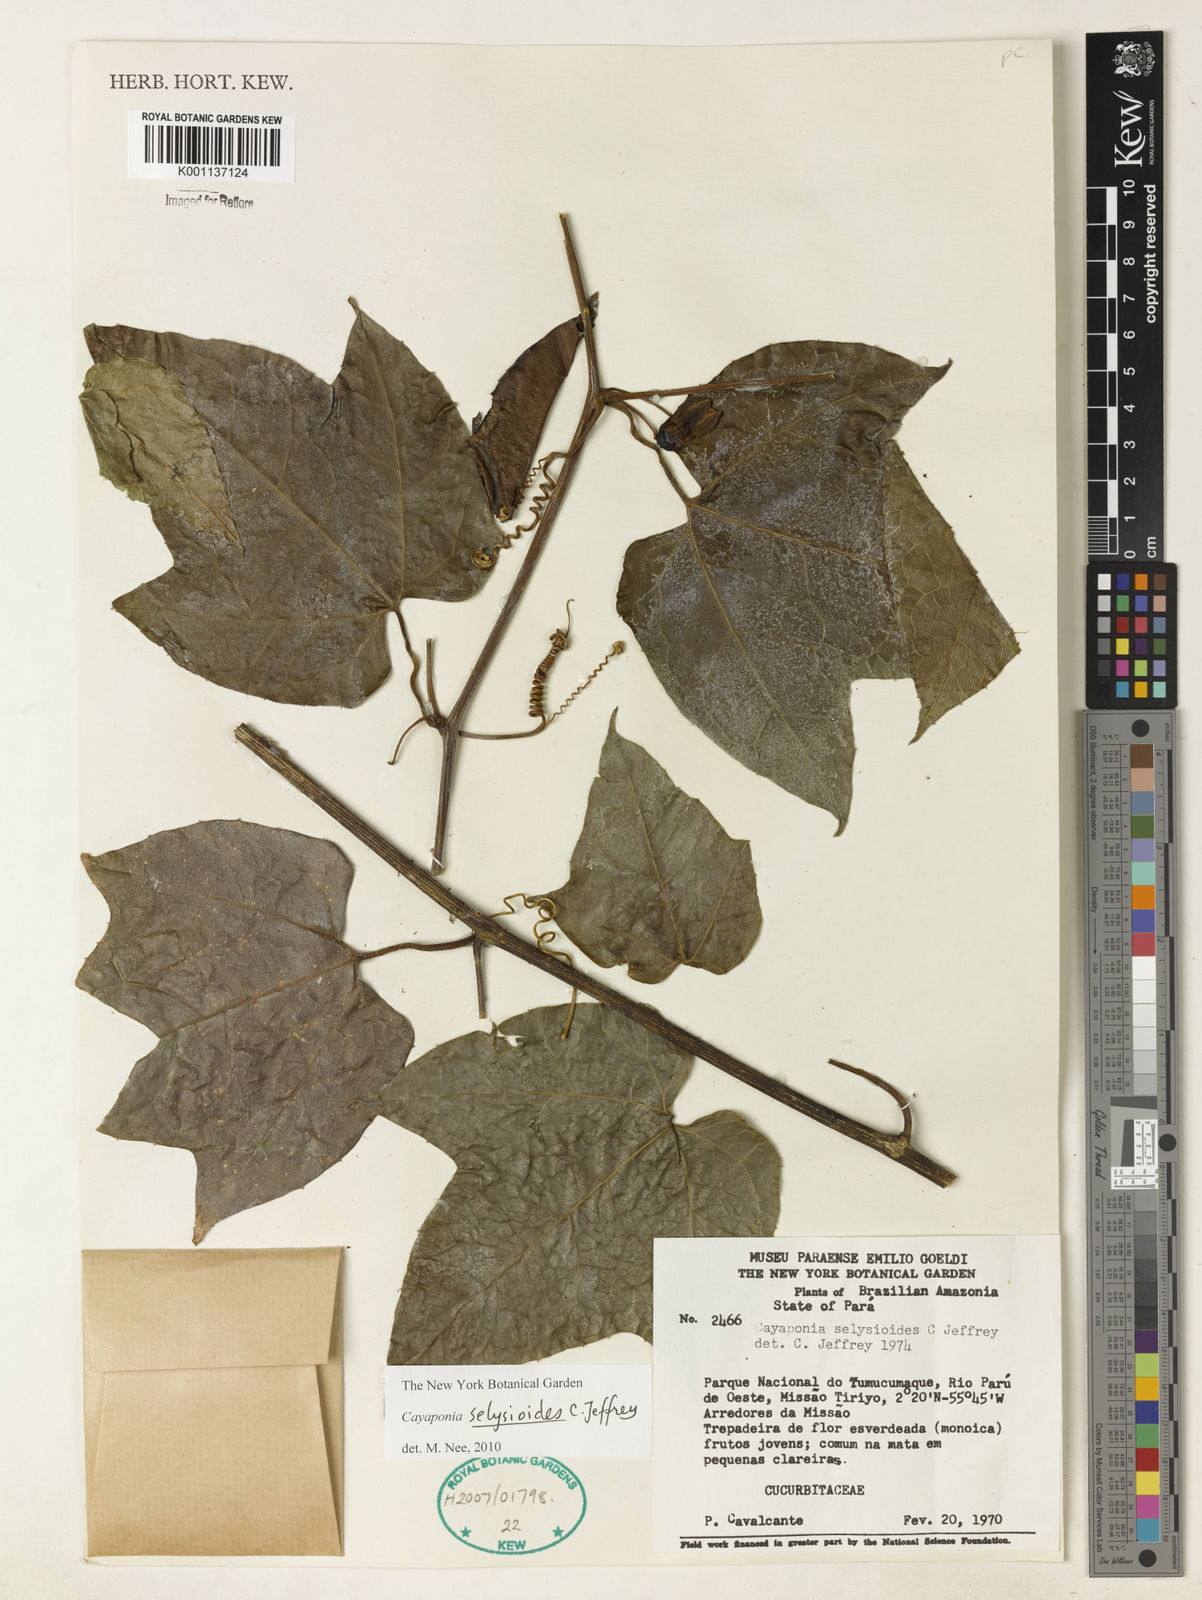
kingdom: Plantae
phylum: Tracheophyta
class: Magnoliopsida
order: Cucurbitales
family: Cucurbitaceae
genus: Cayaponia
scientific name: Cayaponia selysioides
